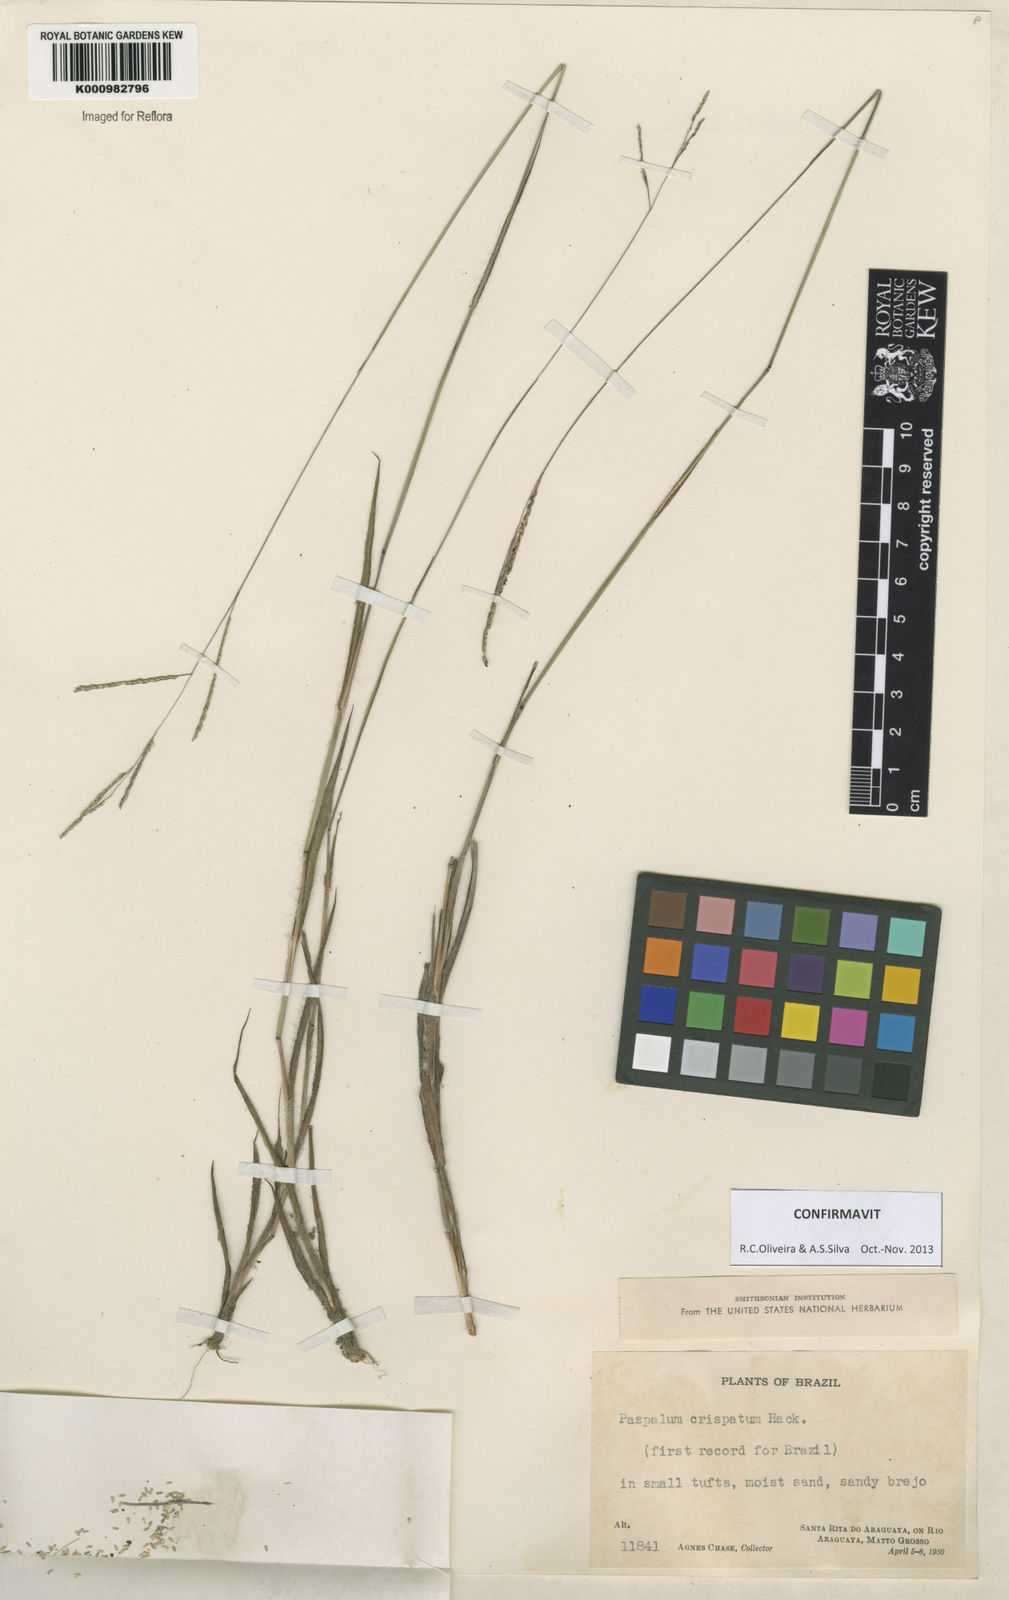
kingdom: Plantae
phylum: Tracheophyta
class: Liliopsida
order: Poales
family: Poaceae
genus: Paspalum
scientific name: Paspalum crispatum
